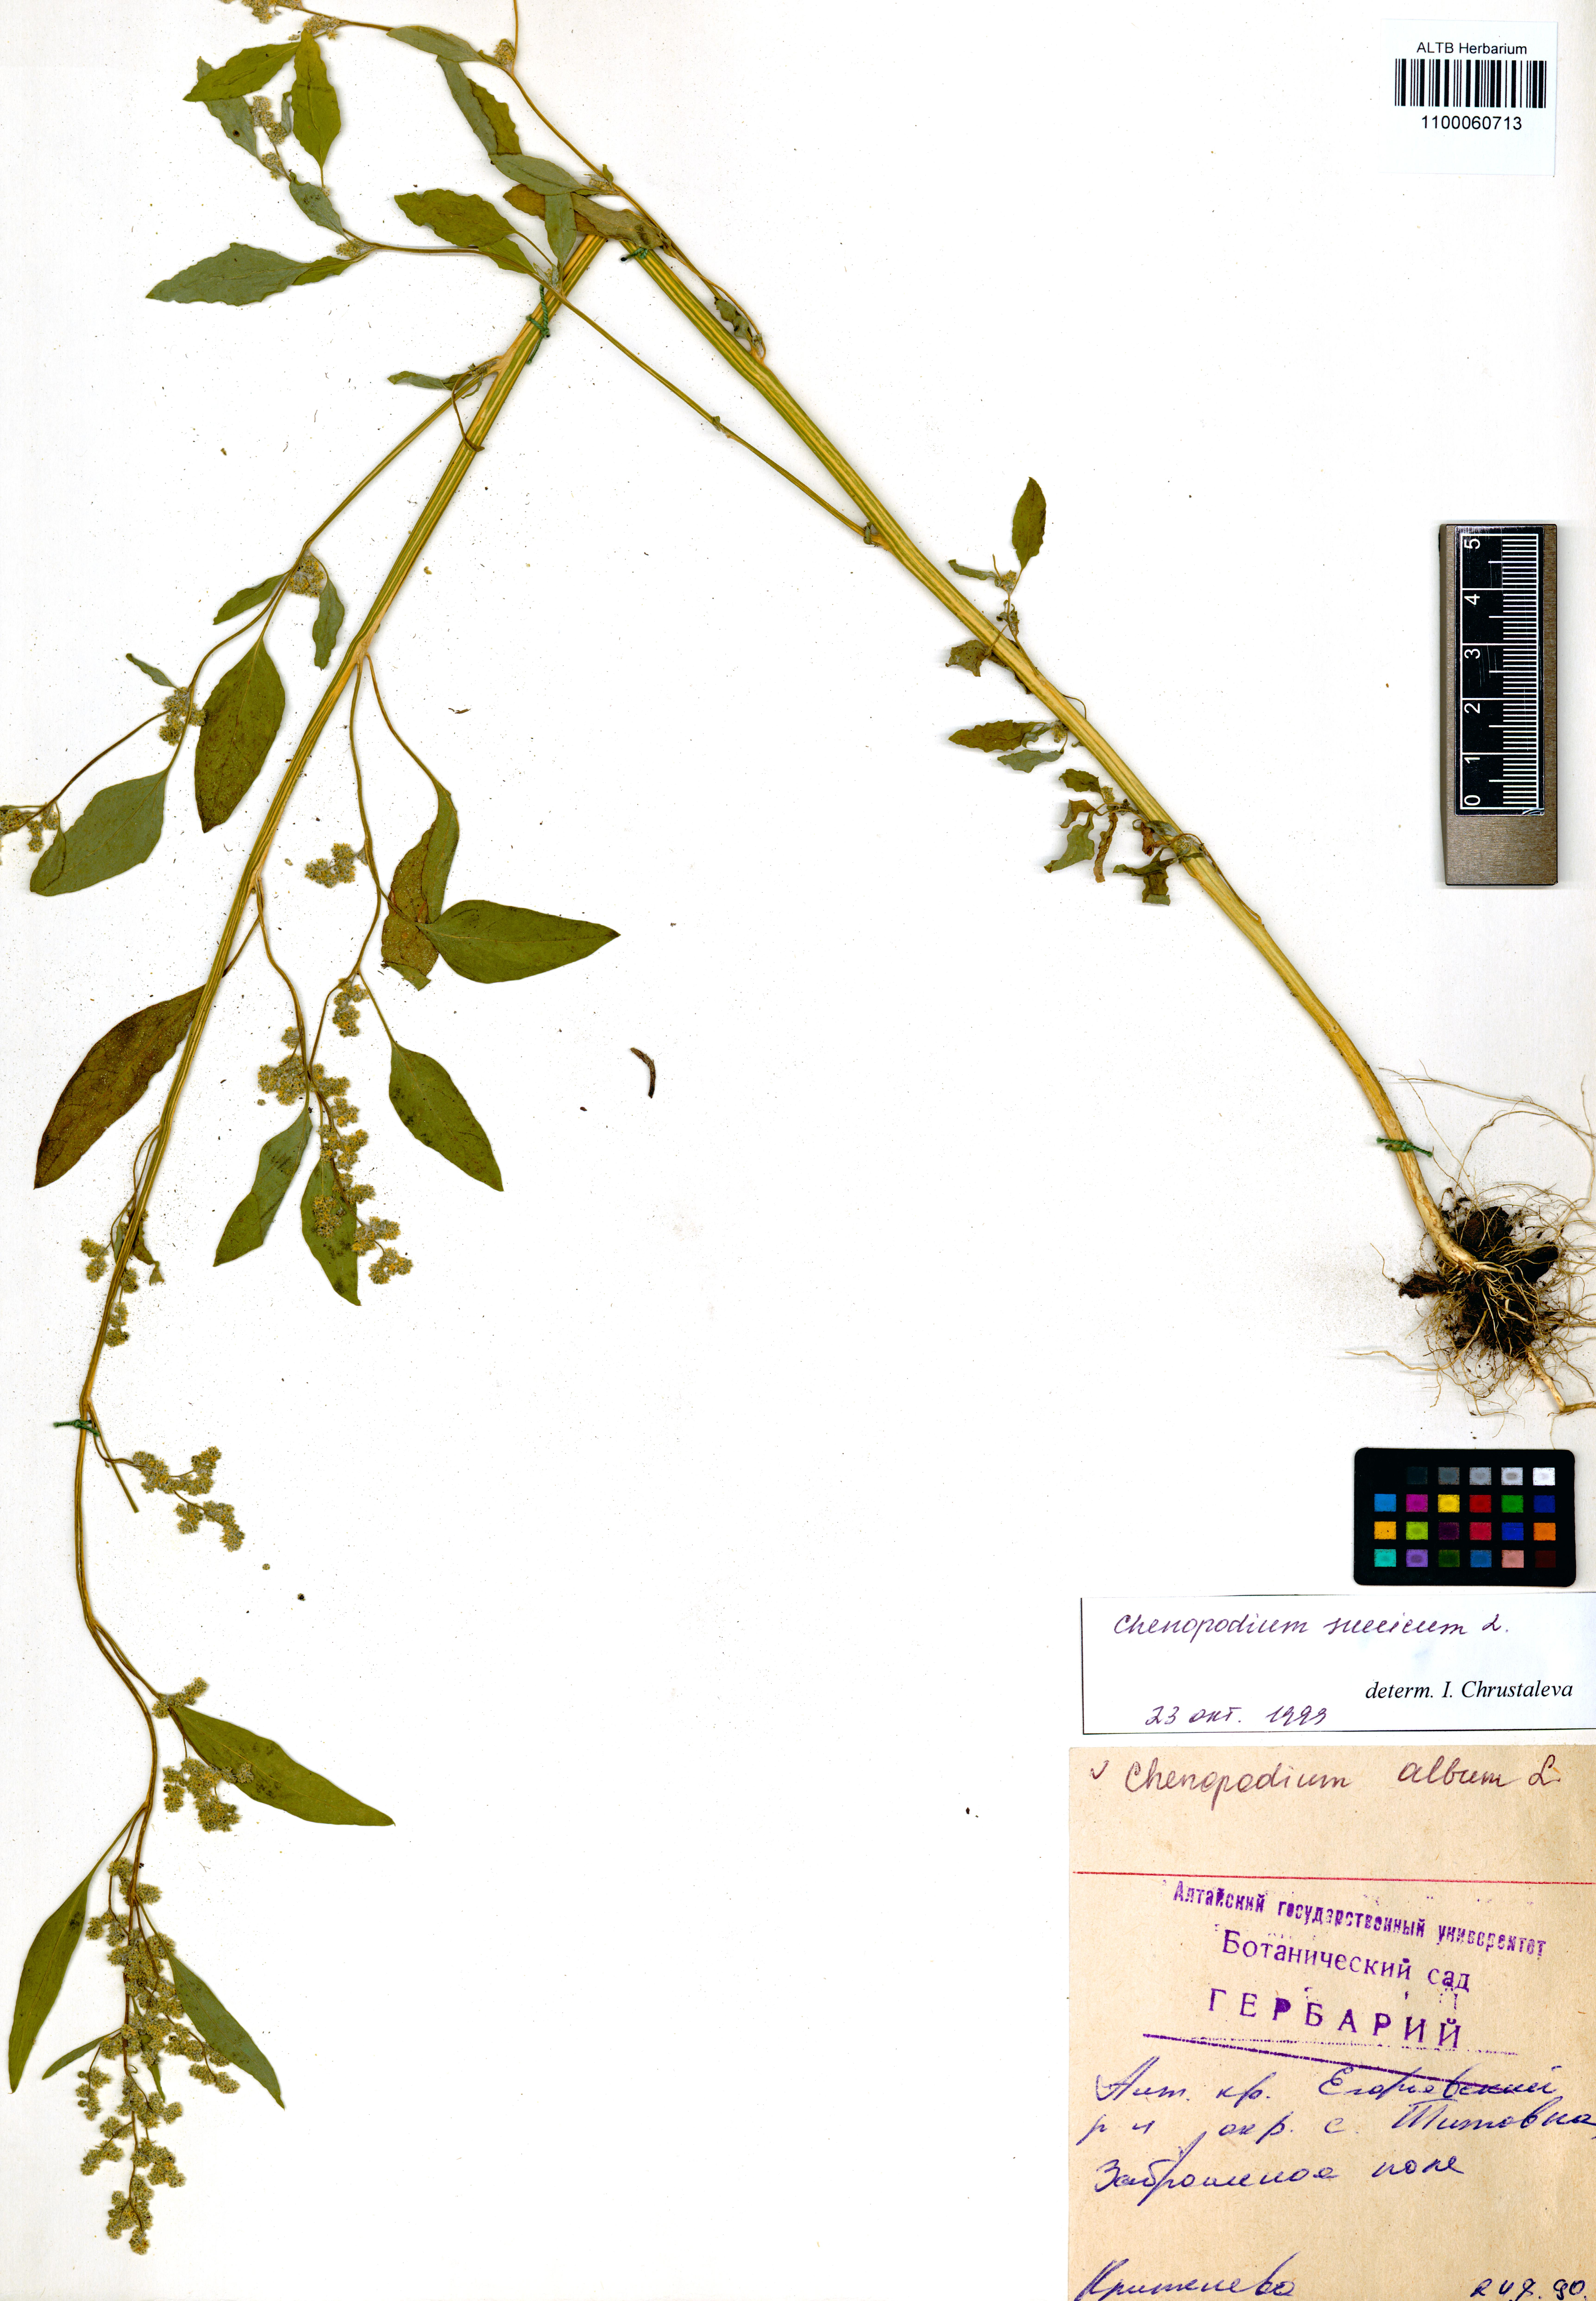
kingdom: Plantae
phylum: Tracheophyta
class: Magnoliopsida
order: Caryophyllales
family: Amaranthaceae
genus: Chenopodium
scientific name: Chenopodium album
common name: Fat-hen
